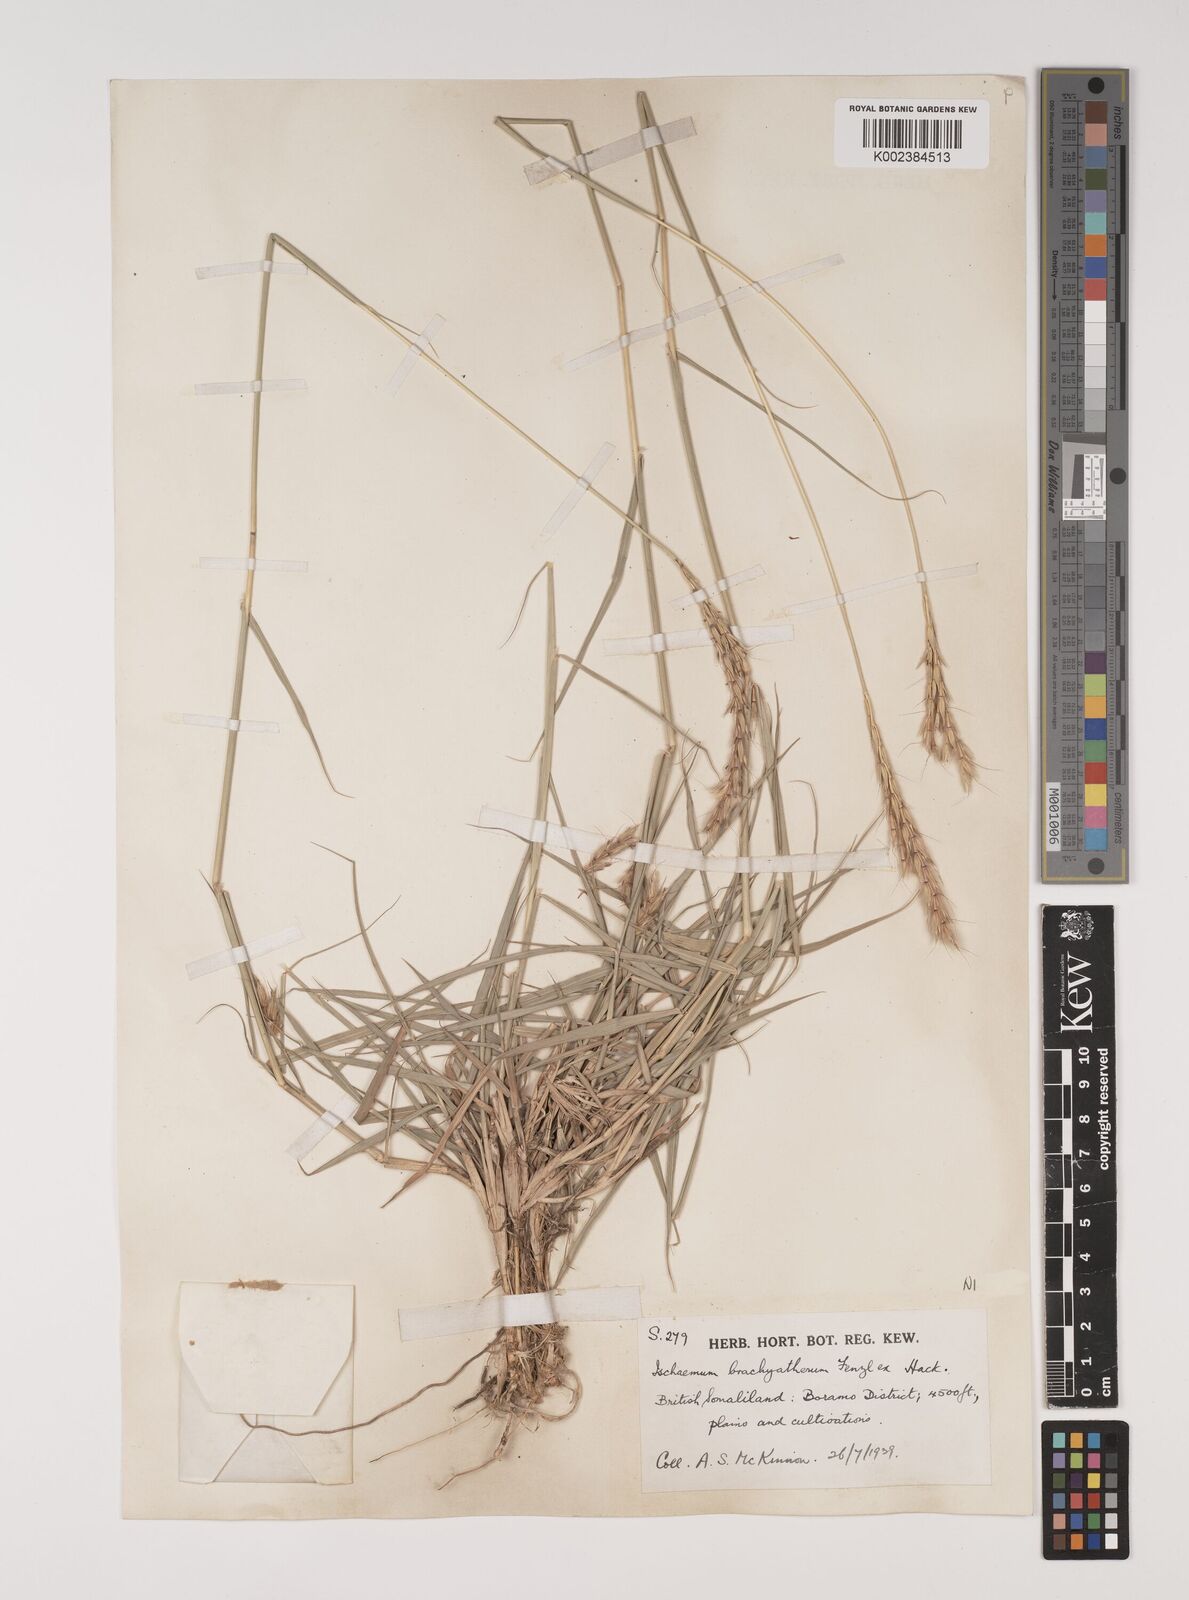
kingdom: Plantae
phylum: Tracheophyta
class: Liliopsida
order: Poales
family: Poaceae
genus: Ischaemum
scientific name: Ischaemum afrum
